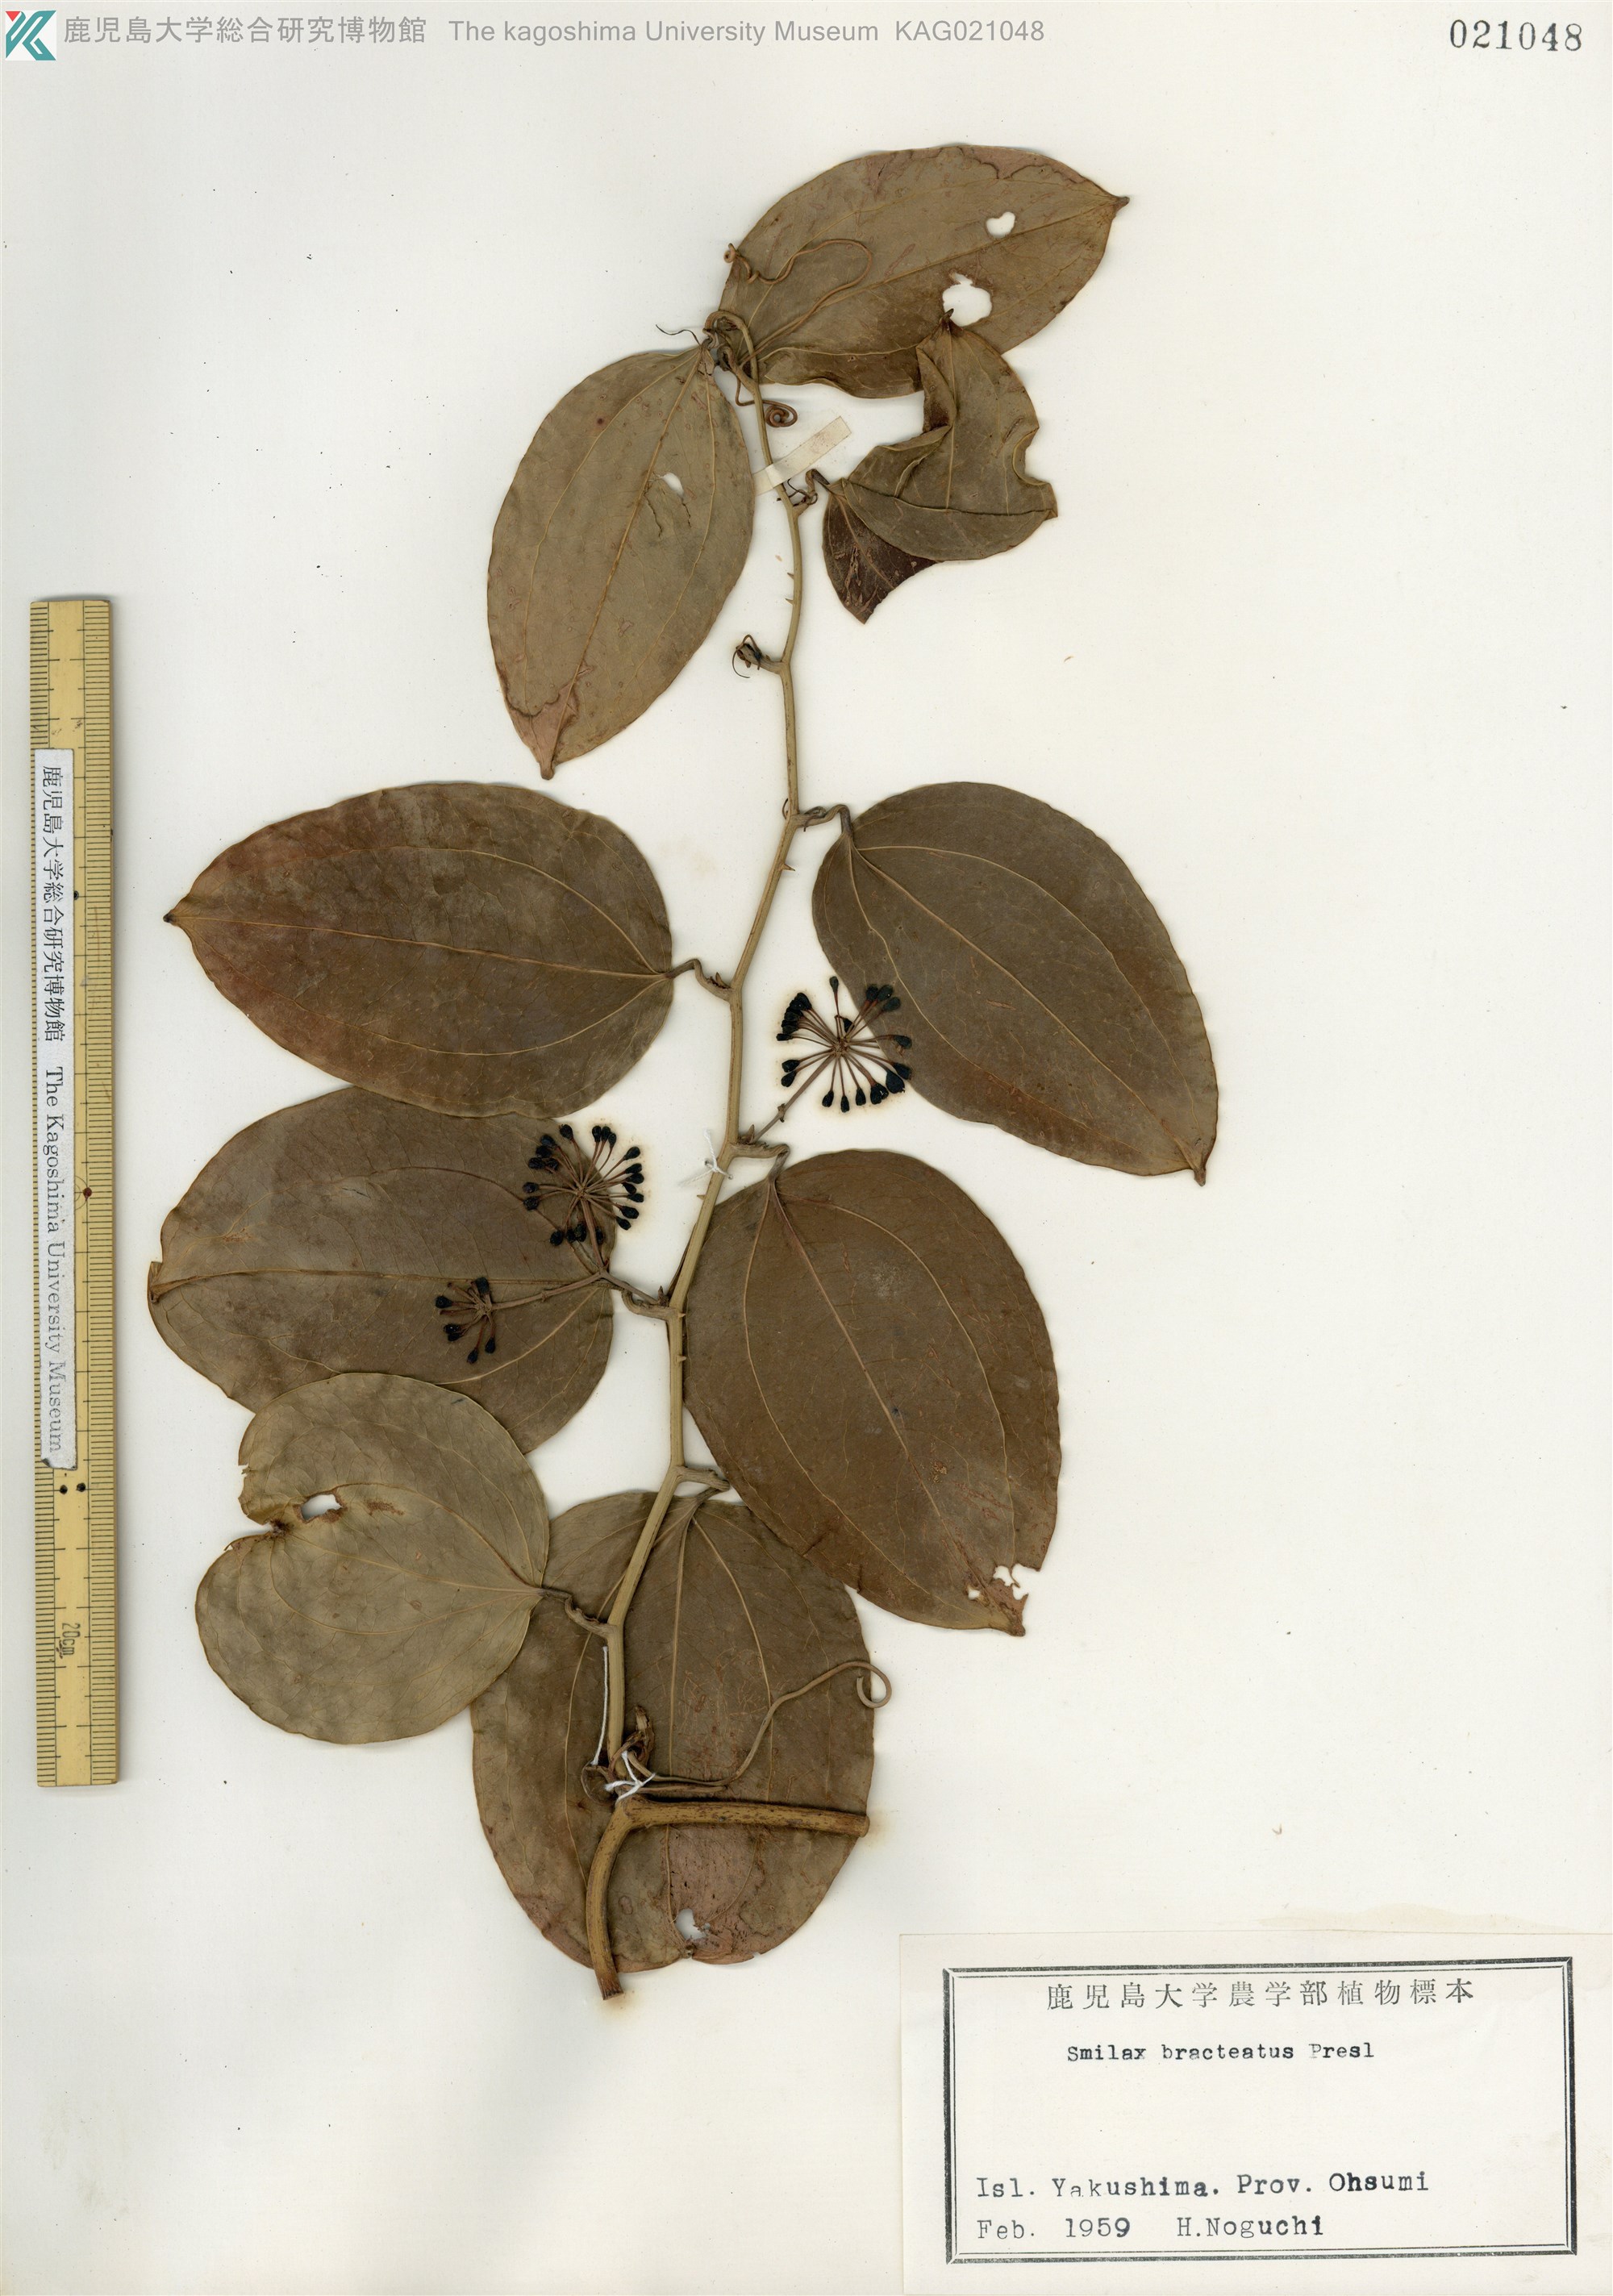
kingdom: Plantae
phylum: Tracheophyta
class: Liliopsida
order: Liliales
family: Smilacaceae
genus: Smilax
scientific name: Smilax bracteata
